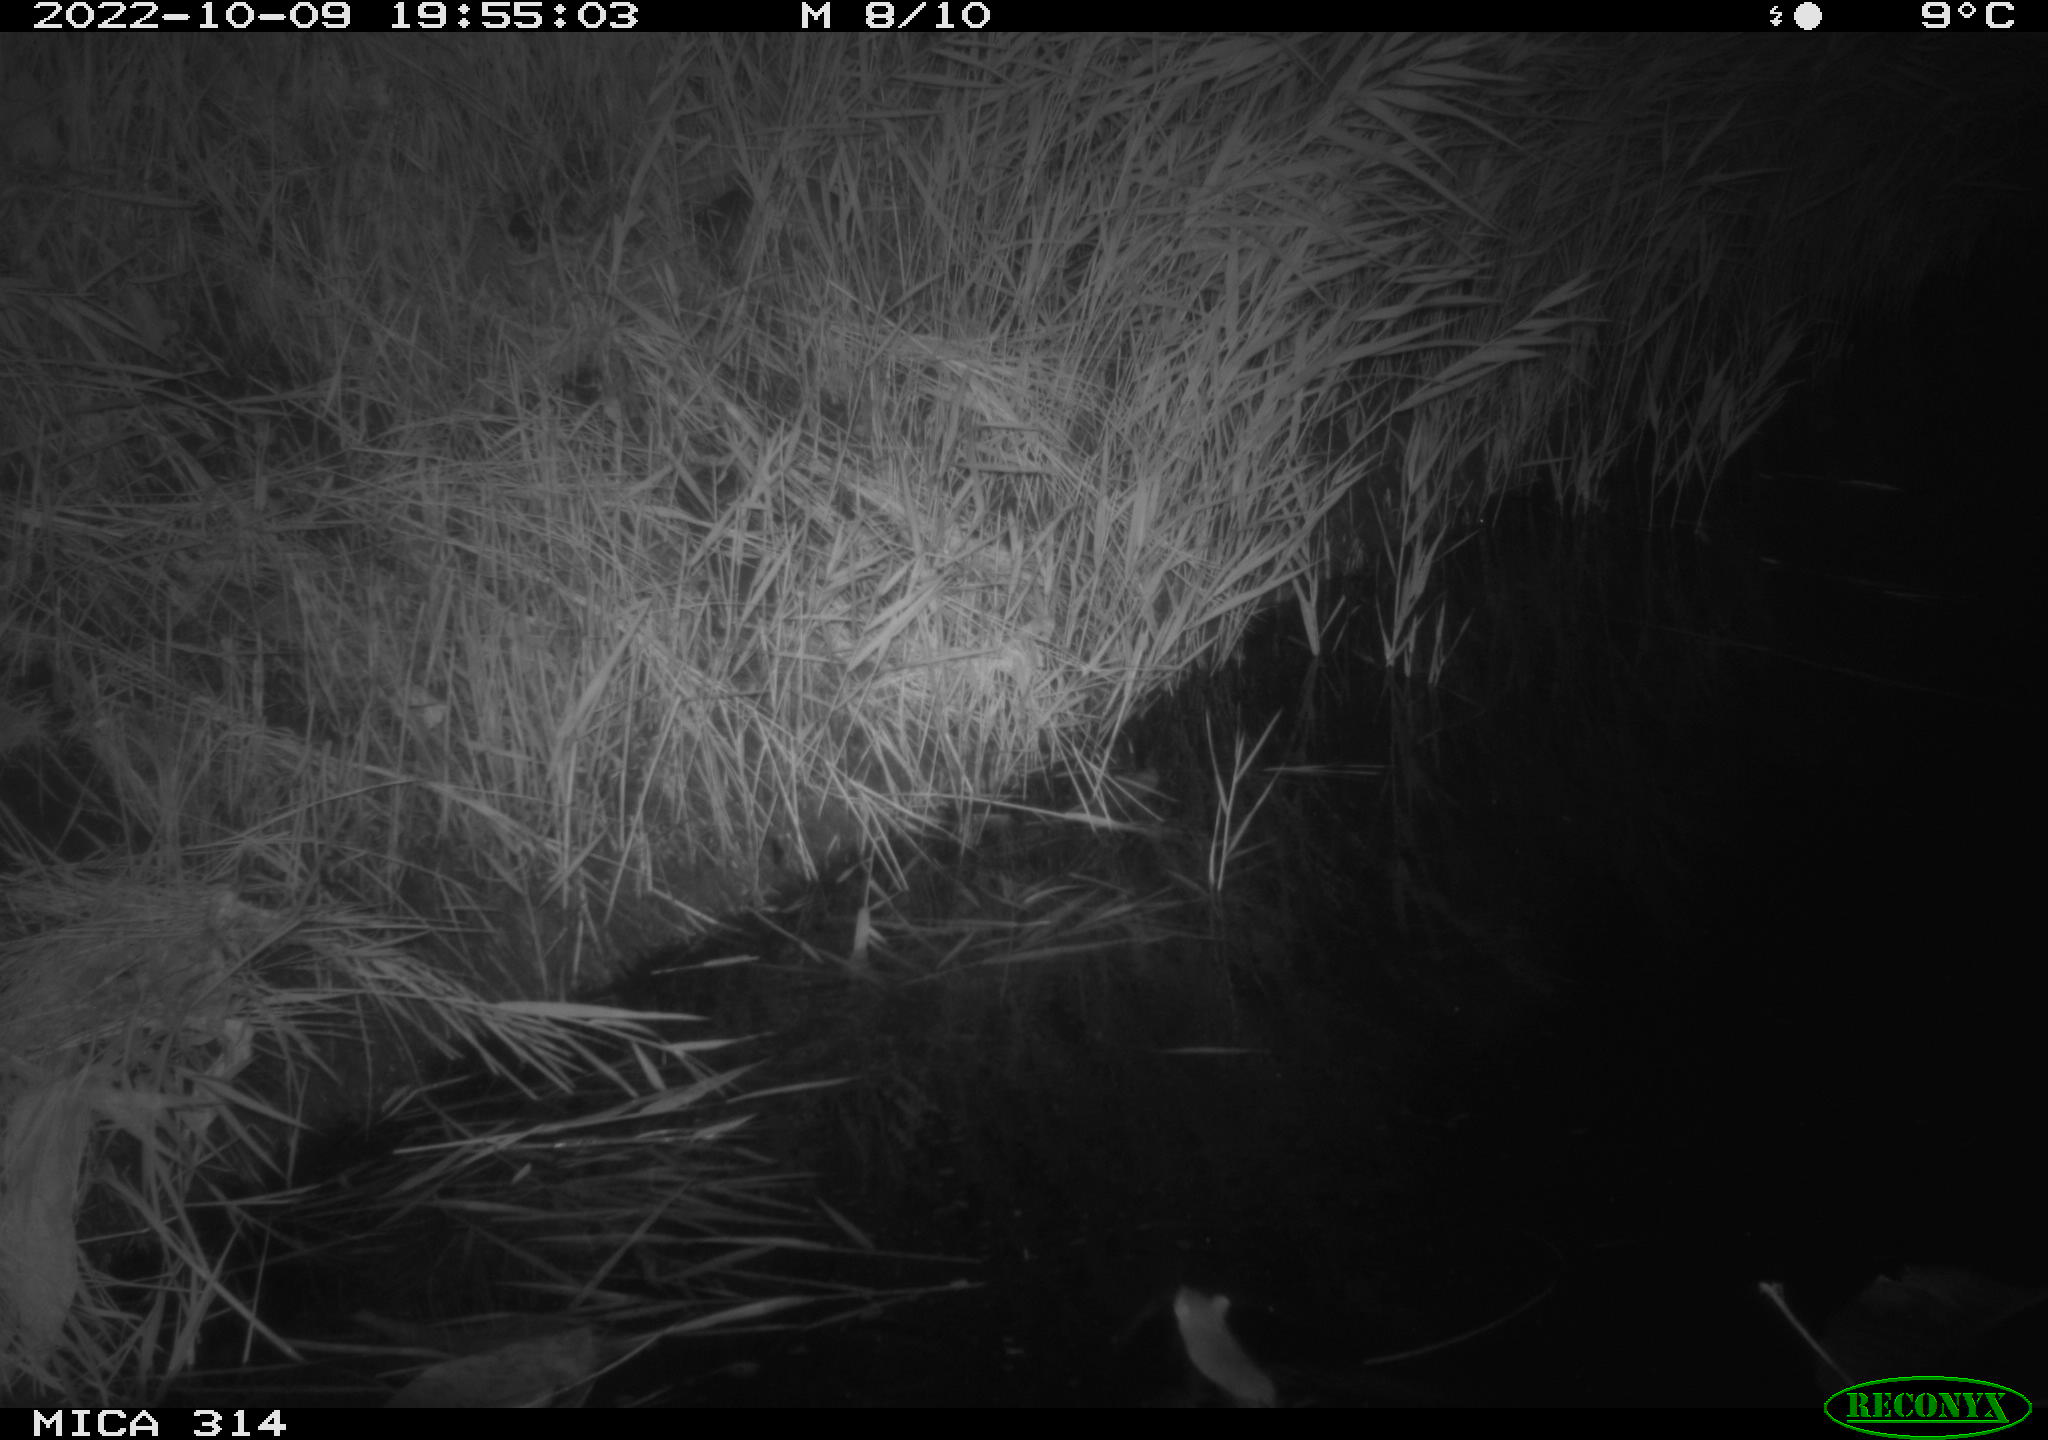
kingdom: Animalia
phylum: Chordata
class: Mammalia
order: Rodentia
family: Muridae
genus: Rattus
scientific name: Rattus norvegicus
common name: Brown rat
